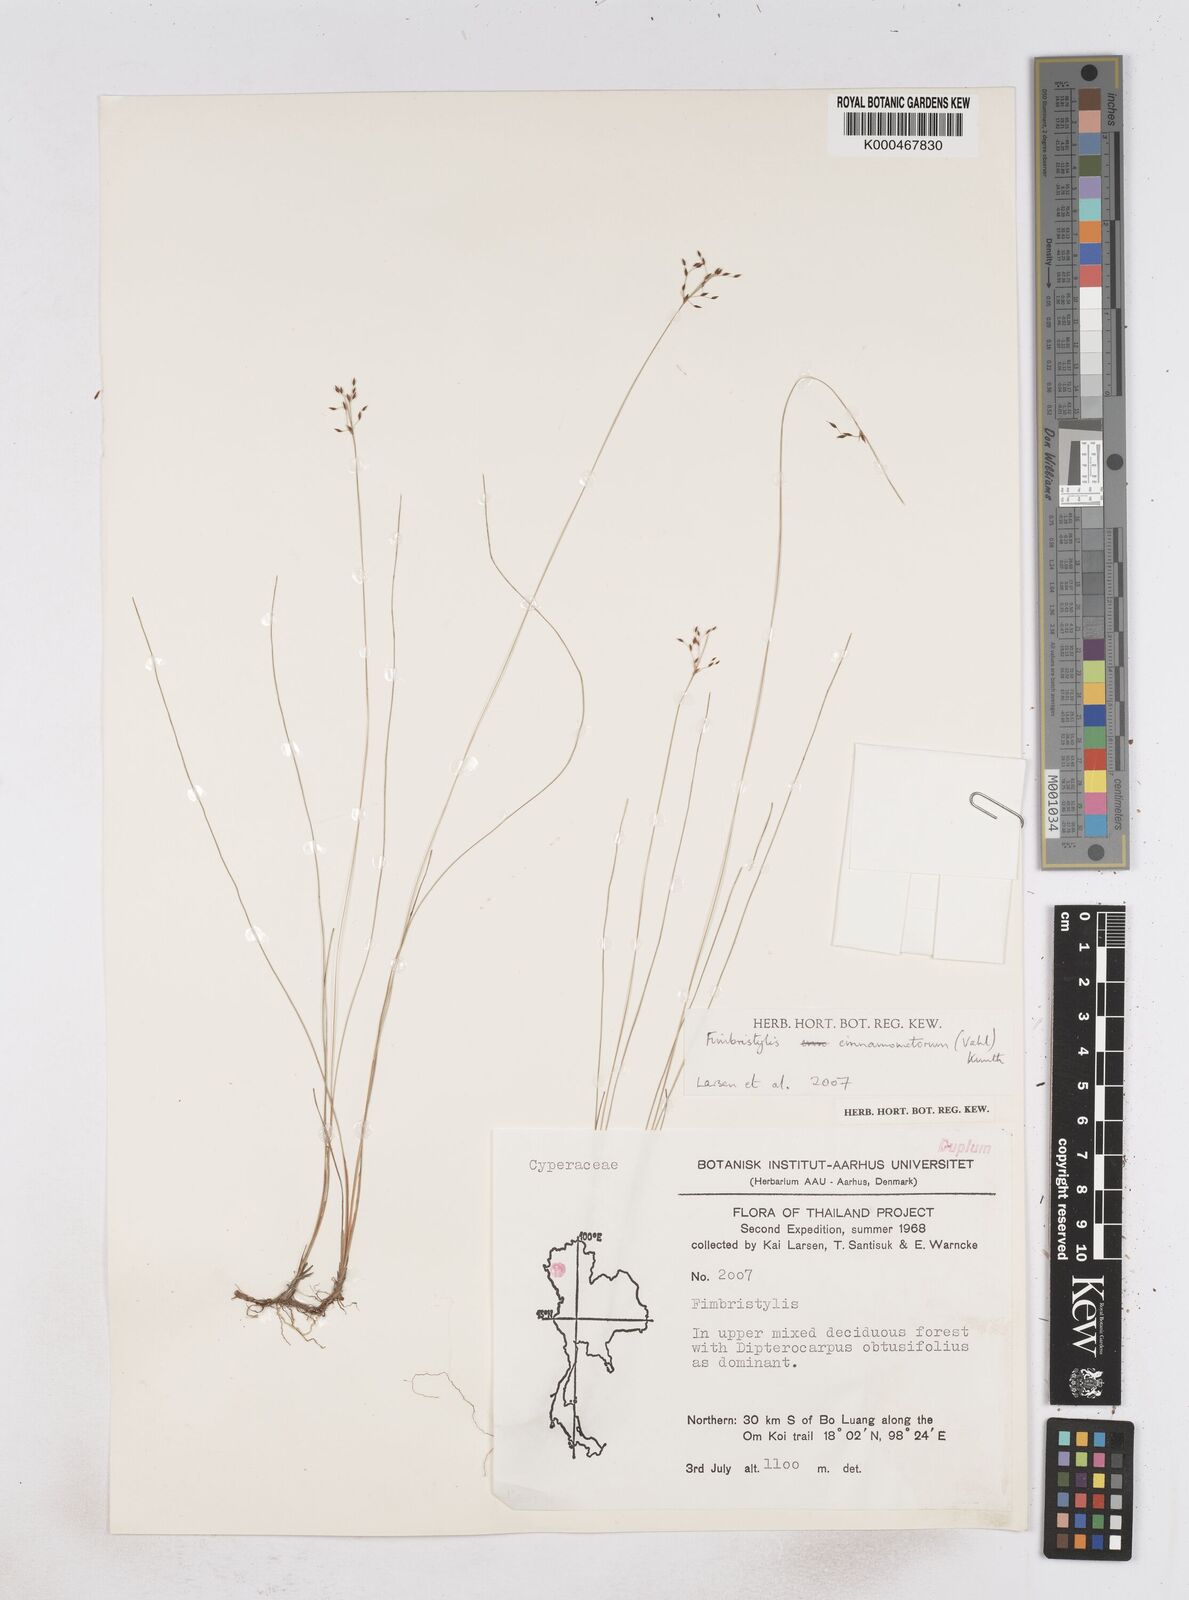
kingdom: Plantae
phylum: Tracheophyta
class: Liliopsida
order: Poales
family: Cyperaceae
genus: Fimbristylis
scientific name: Fimbristylis cinnamometorum
